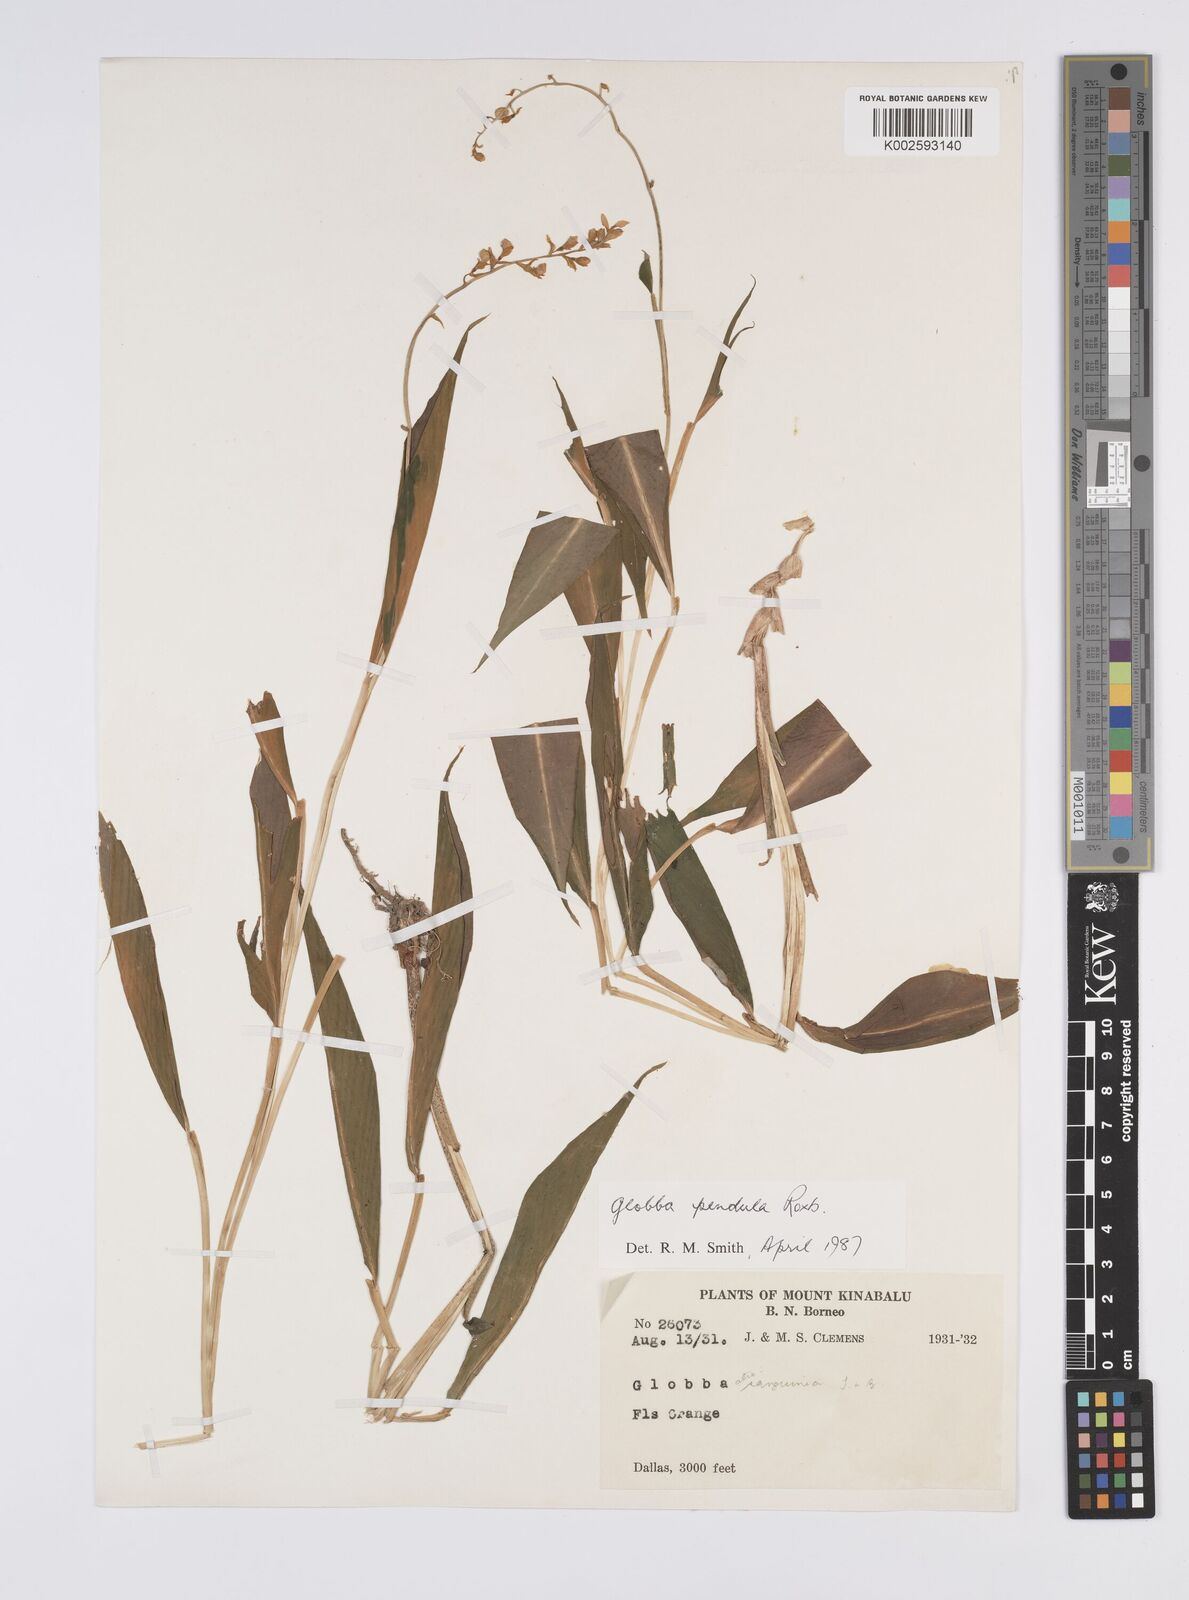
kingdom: Plantae
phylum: Tracheophyta
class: Liliopsida
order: Zingiberales
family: Zingiberaceae
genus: Globba
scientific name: Globba pendula
